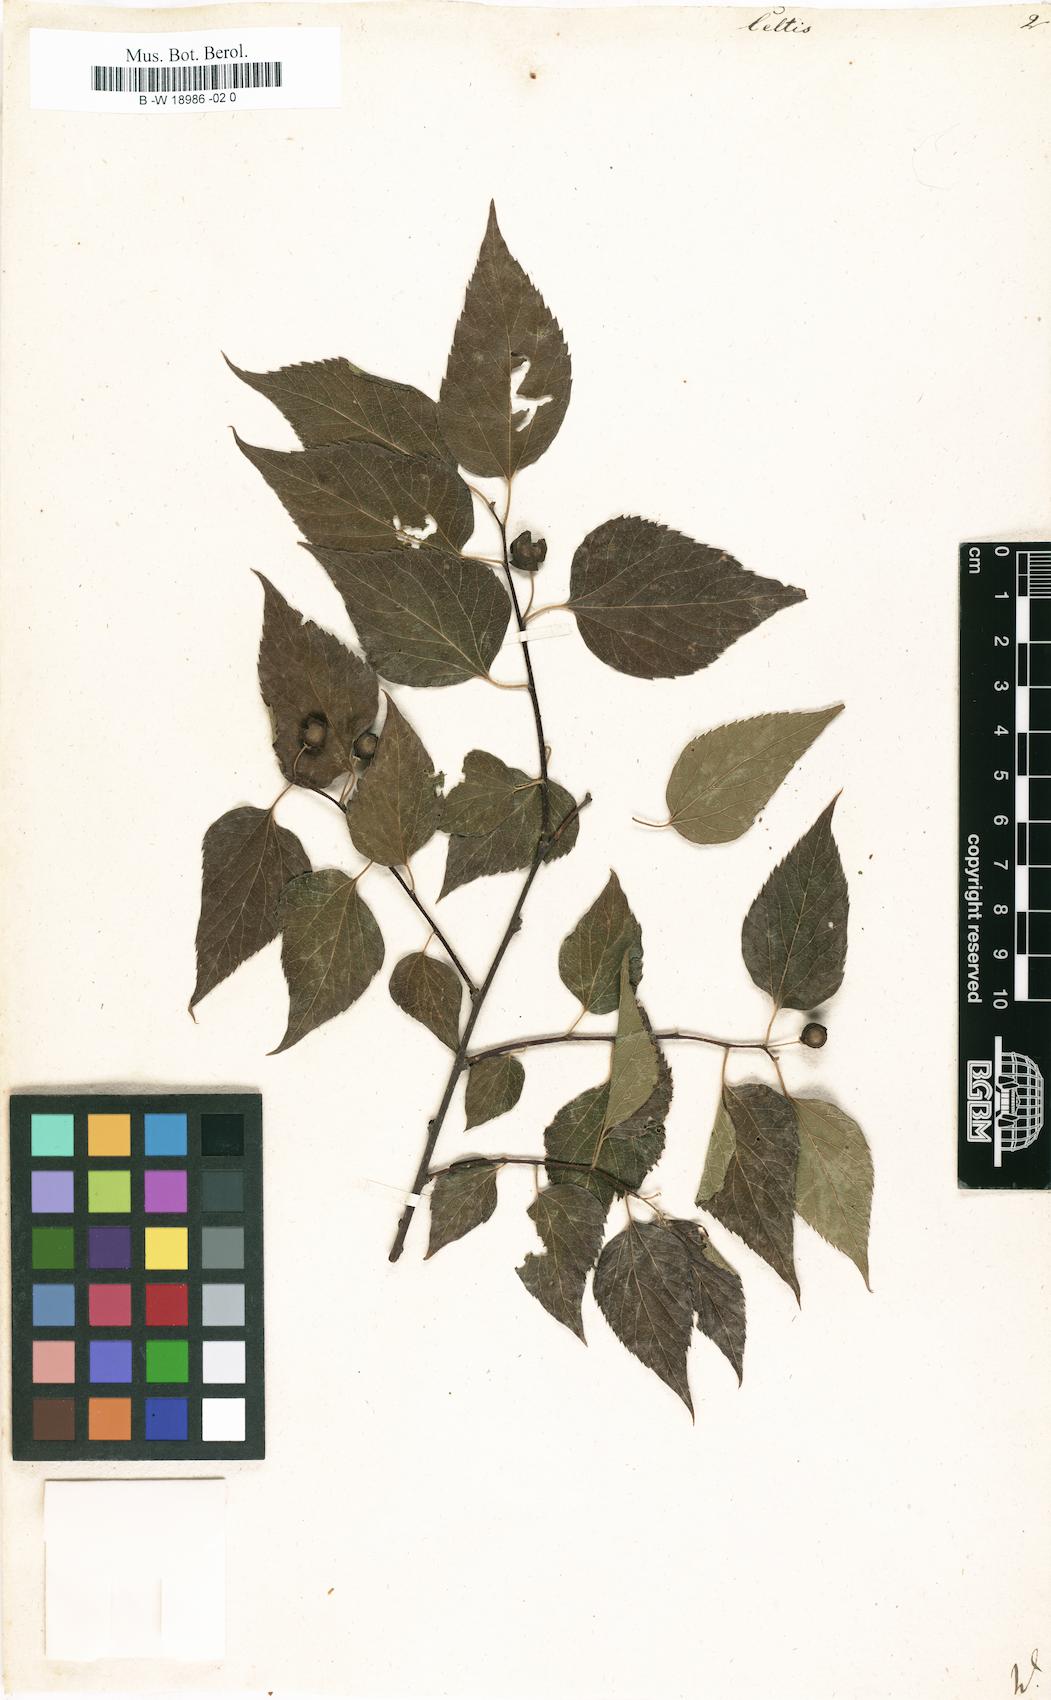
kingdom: Plantae
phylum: Tracheophyta
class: Magnoliopsida
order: Rosales
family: Cannabaceae
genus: Celtis
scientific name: Celtis
